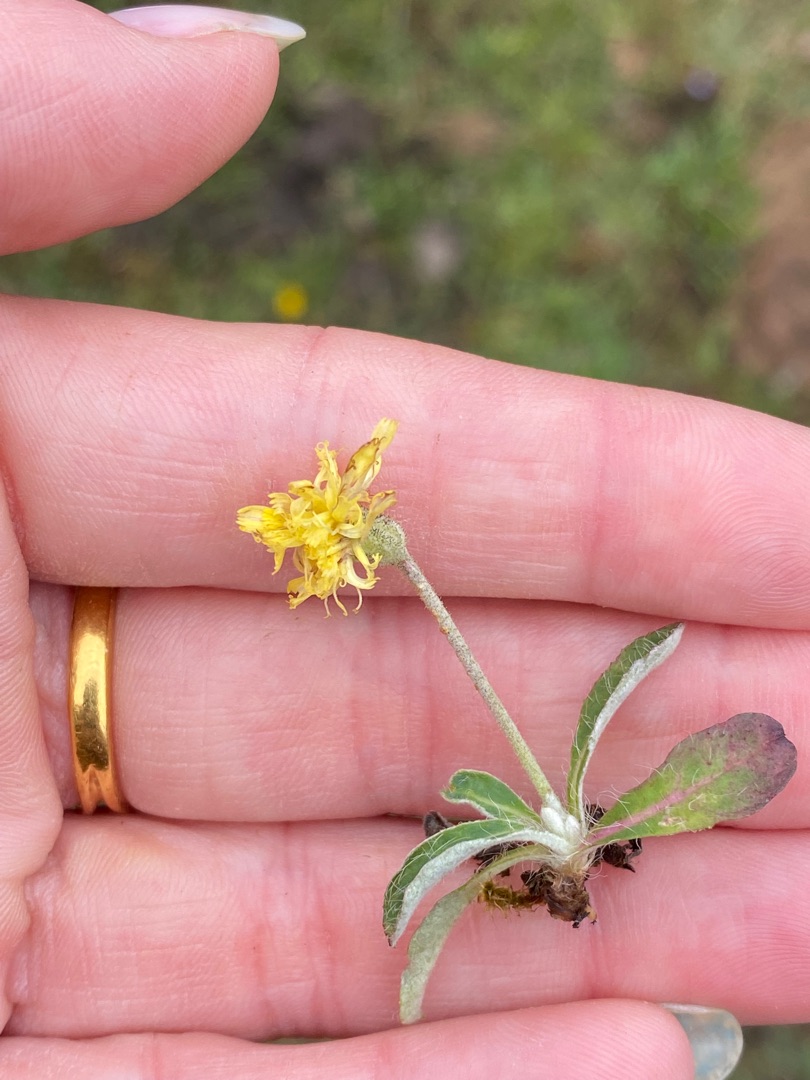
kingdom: Plantae
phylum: Tracheophyta
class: Magnoliopsida
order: Asterales
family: Asteraceae
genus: Pilosella
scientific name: Pilosella officinarum
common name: Håret høgeurt
